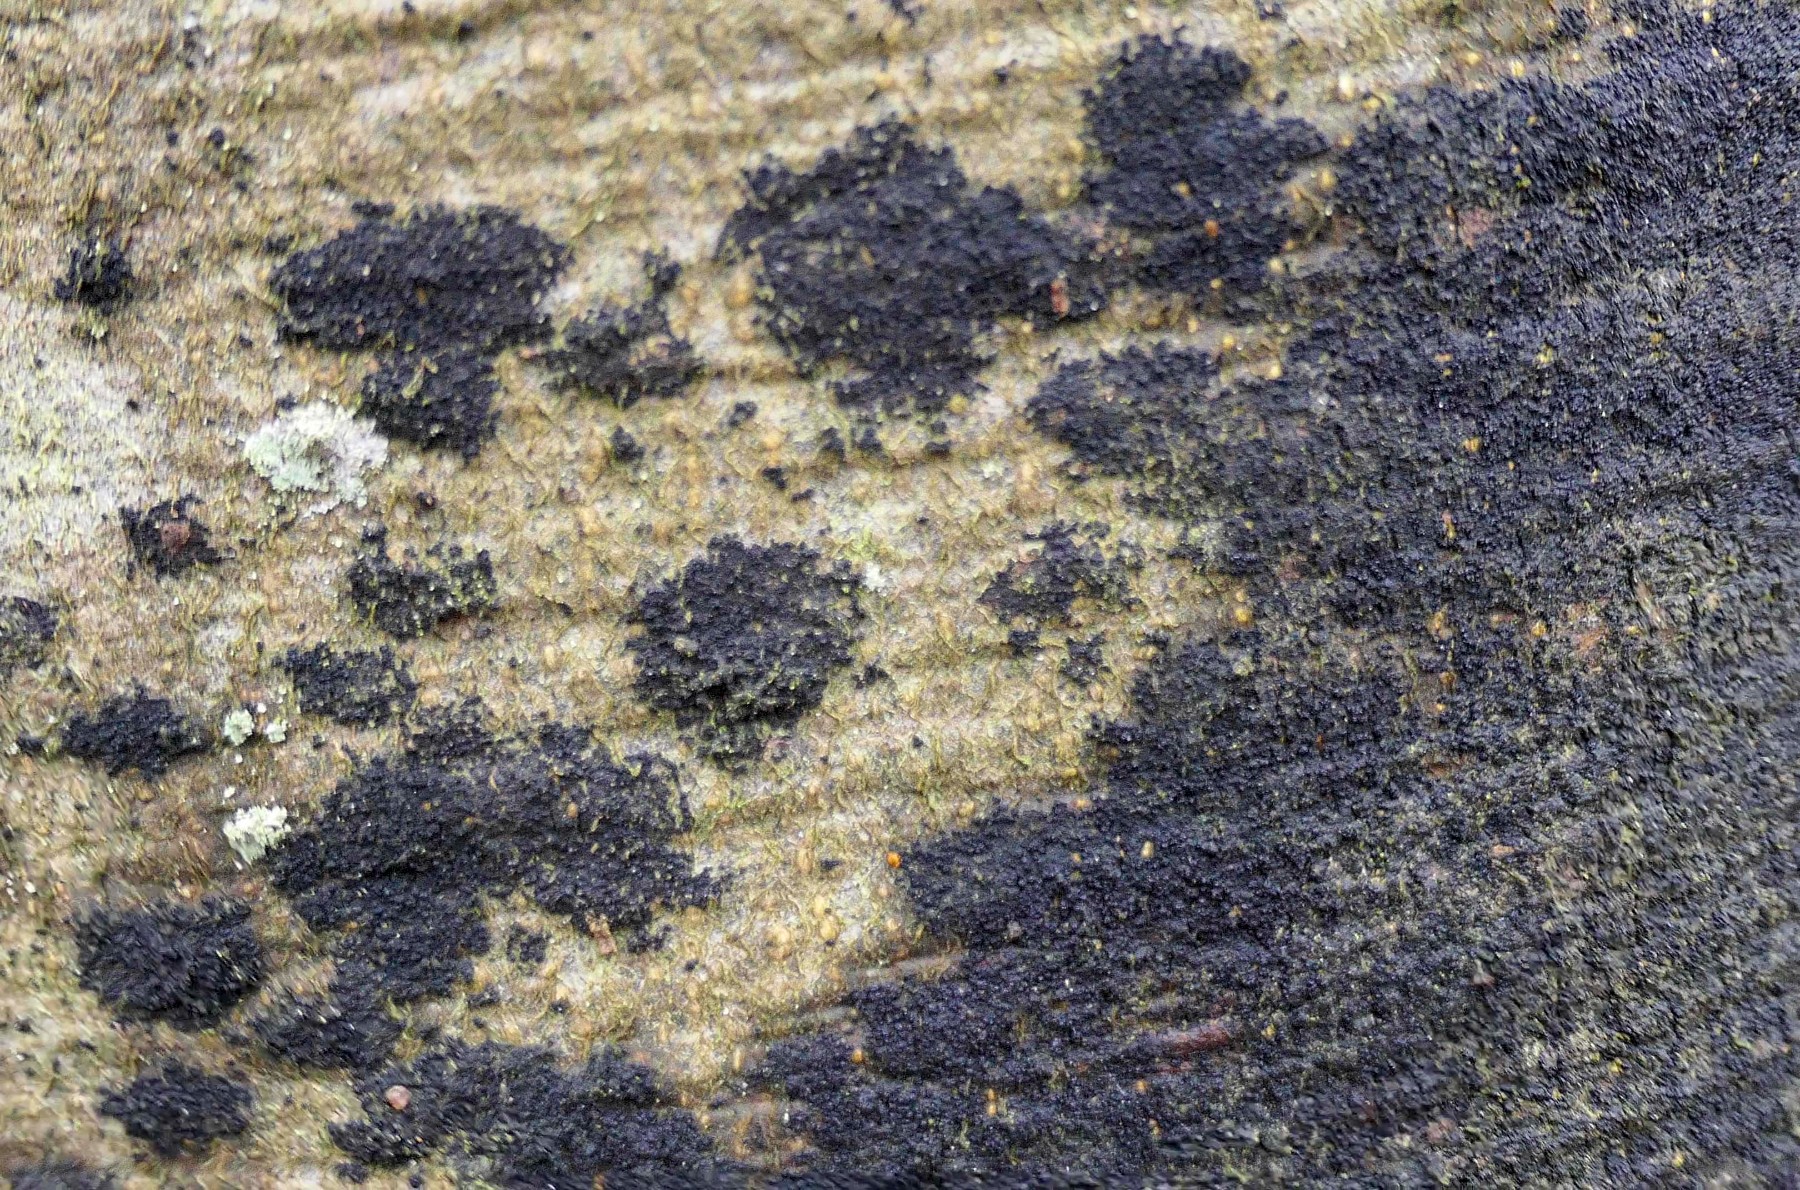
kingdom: Fungi
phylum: Ascomycota
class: Leotiomycetes
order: Rhytismatales
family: Ascodichaenaceae
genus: Ascodichaena
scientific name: Ascodichaena rugosa
